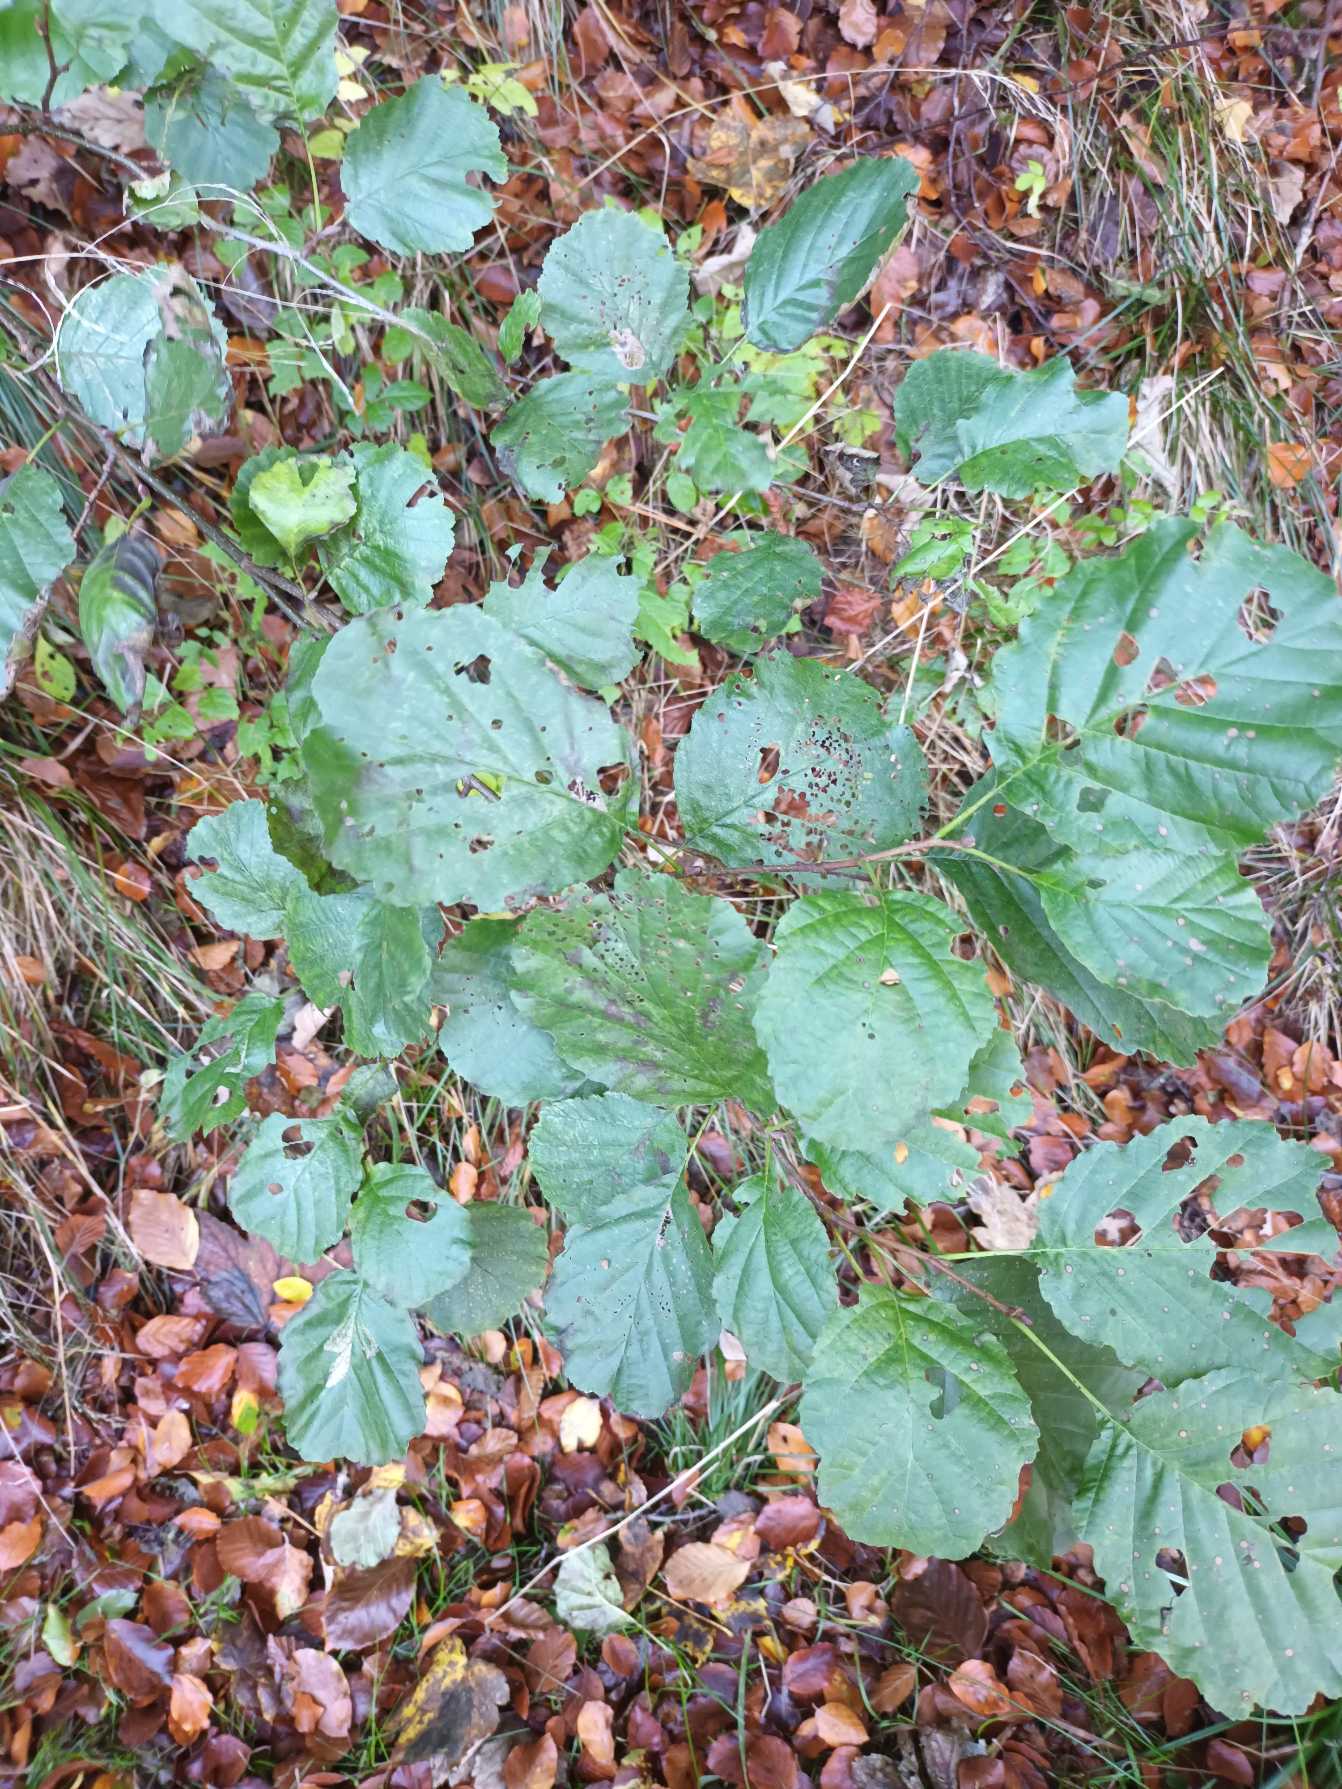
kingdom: Plantae
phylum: Tracheophyta
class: Magnoliopsida
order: Fagales
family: Betulaceae
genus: Alnus
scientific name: Alnus glutinosa
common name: Rød-el
